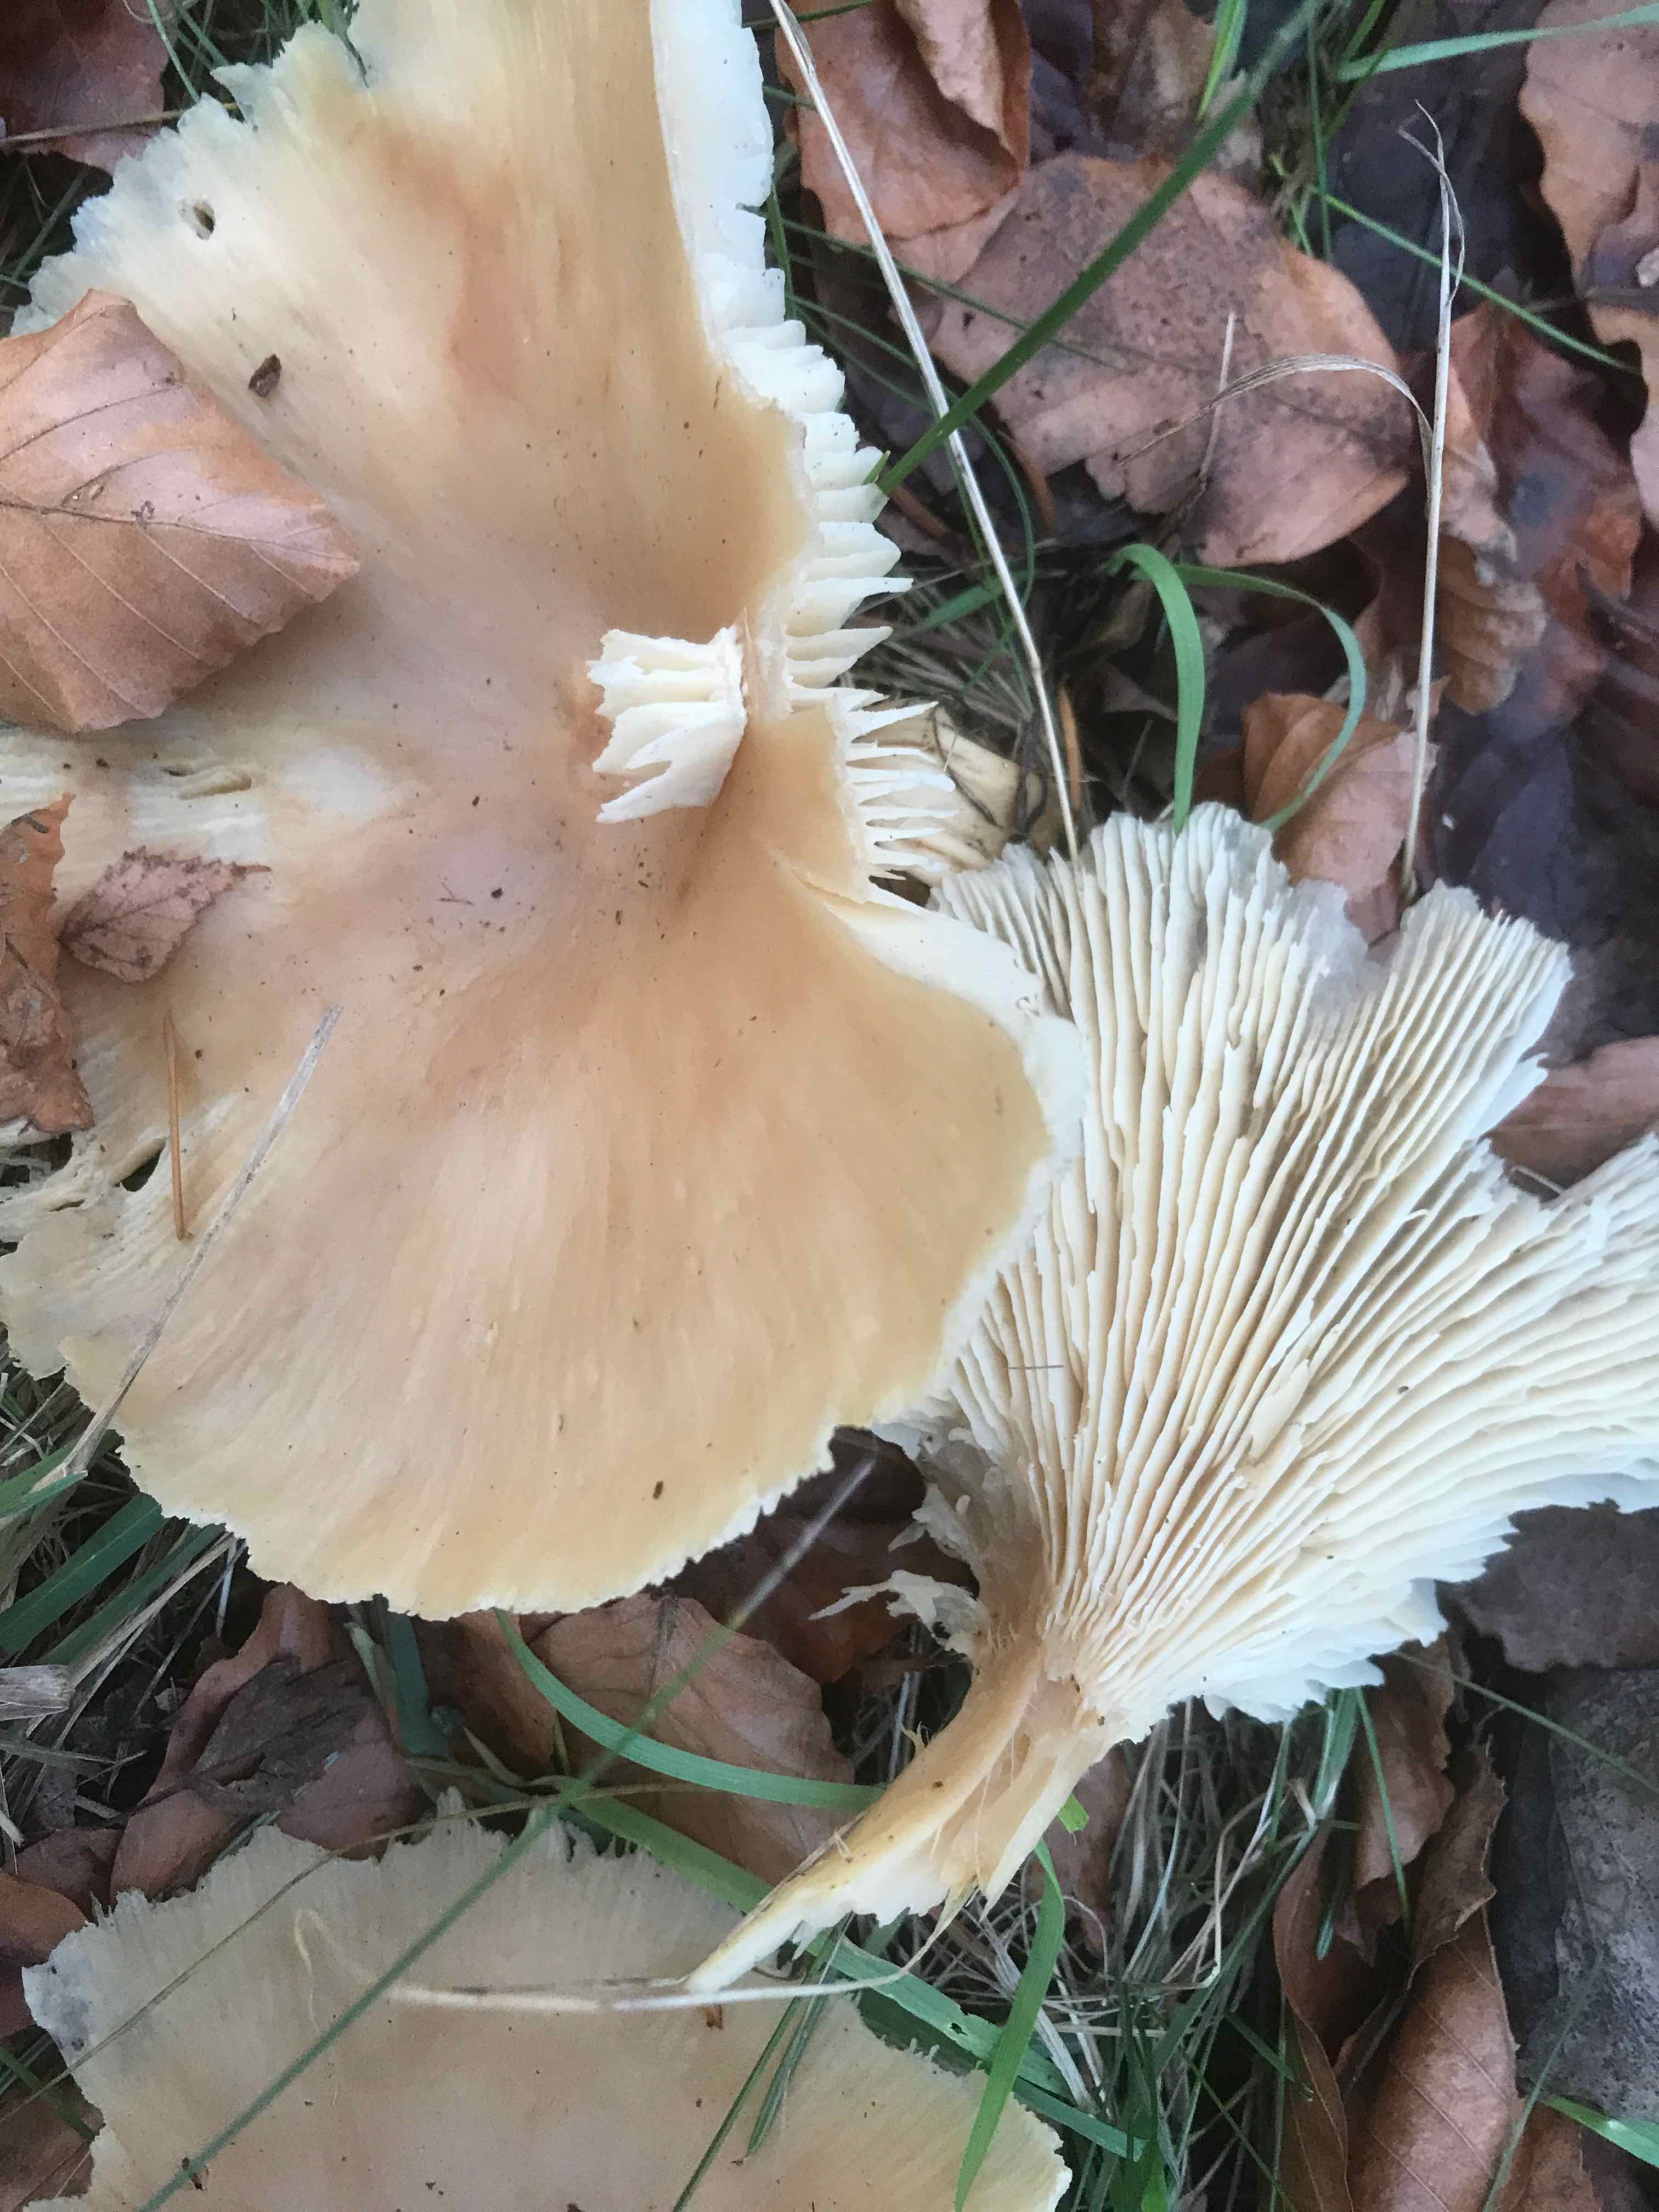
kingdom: Fungi
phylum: Basidiomycota
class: Agaricomycetes
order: Agaricales
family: Tricholomataceae
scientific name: Tricholomataceae
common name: ridderhatfamilien
